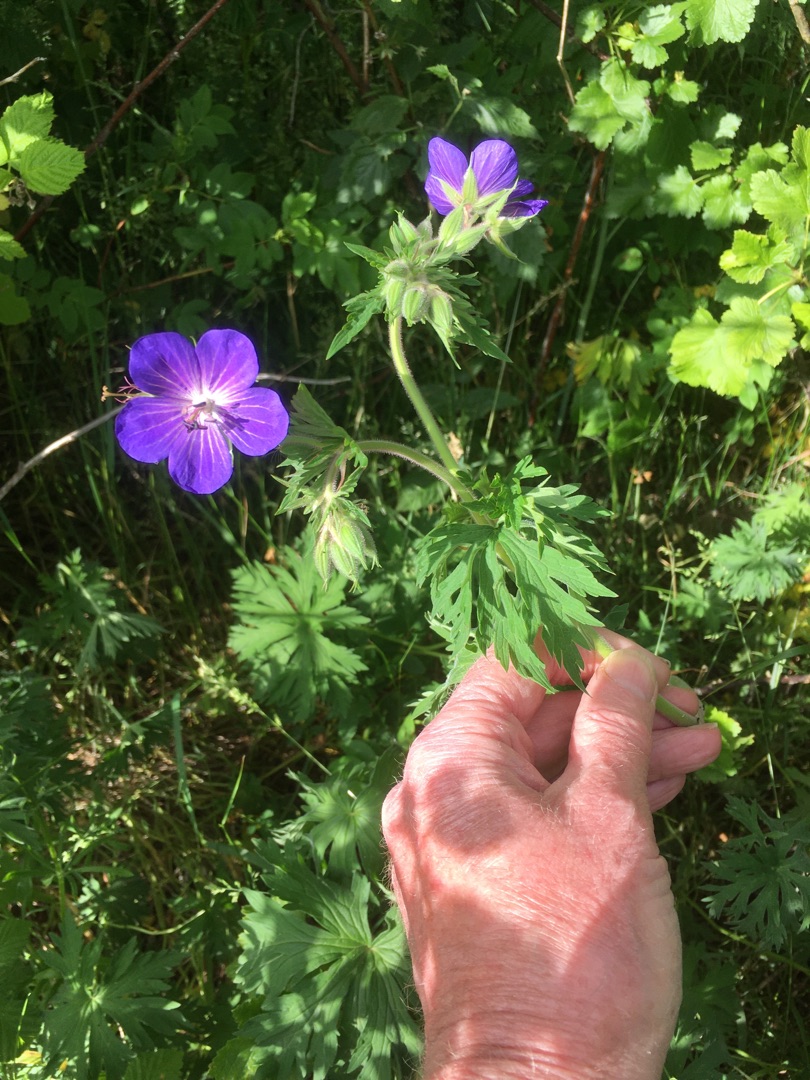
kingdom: Plantae
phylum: Tracheophyta
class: Magnoliopsida
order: Geraniales
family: Geraniaceae
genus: Geranium
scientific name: Geranium pratense
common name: Eng-storkenæb
